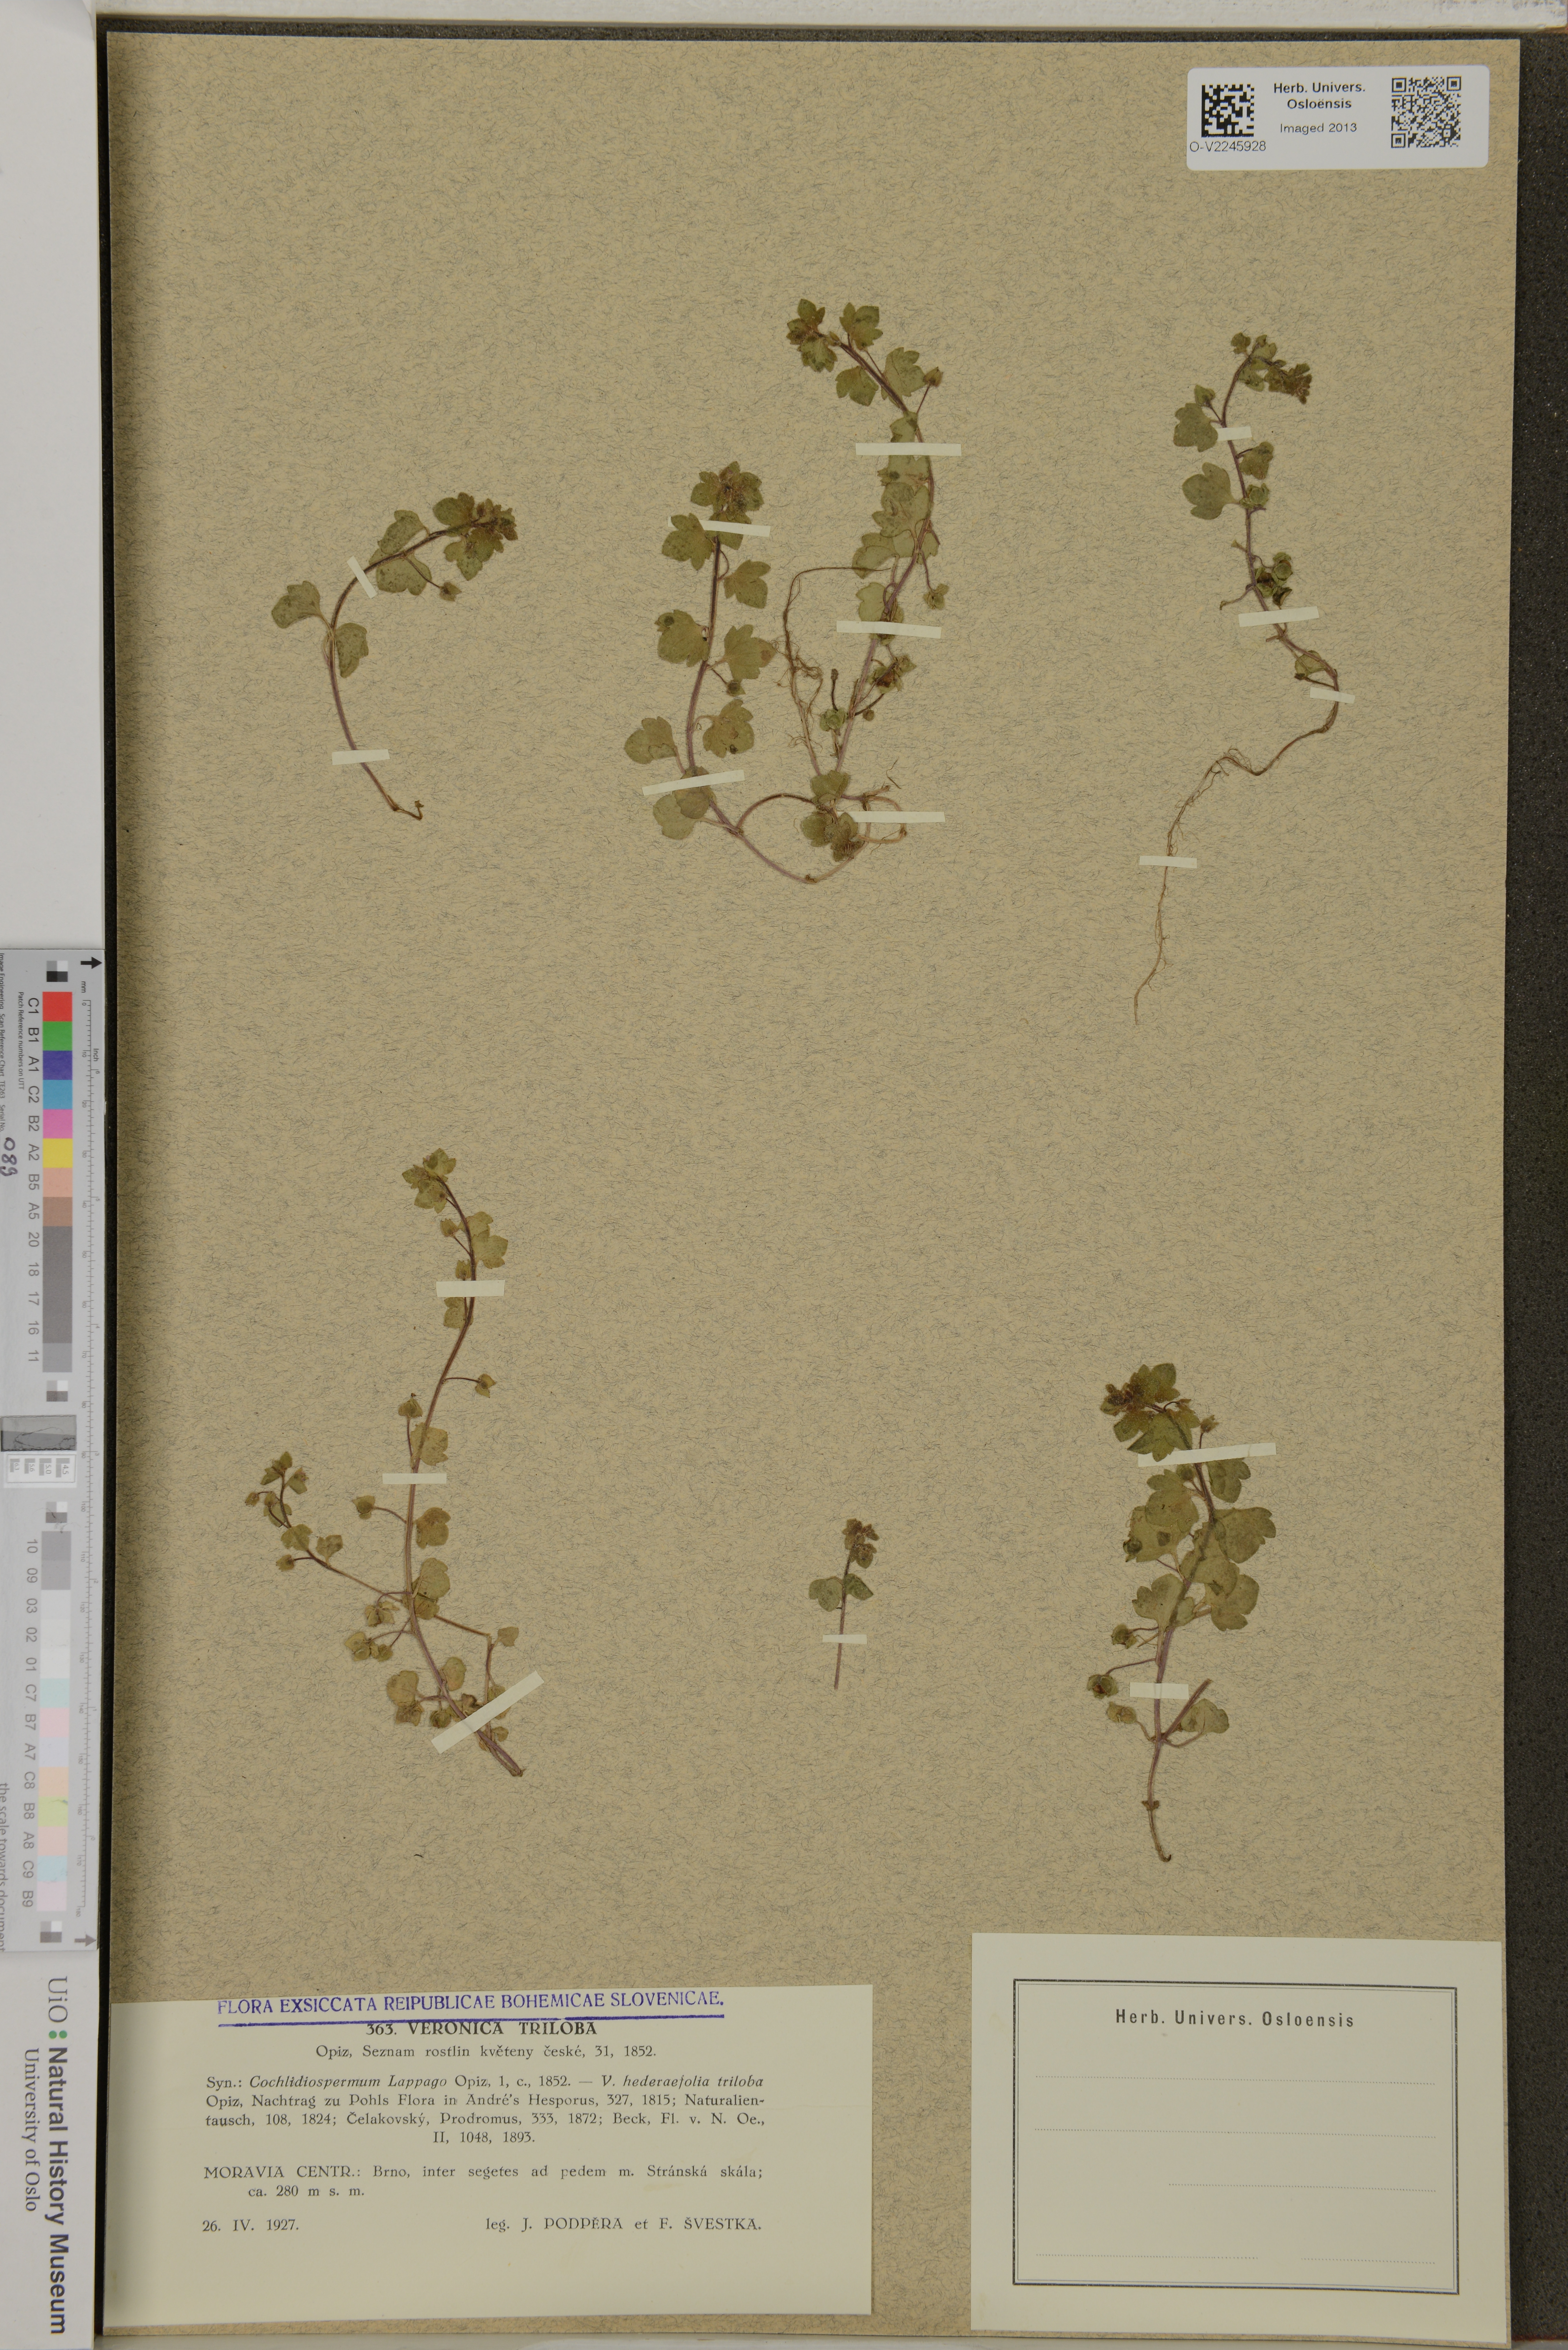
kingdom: Plantae
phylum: Tracheophyta
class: Magnoliopsida
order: Lamiales
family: Plantaginaceae
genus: Veronica
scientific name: Veronica triloba
